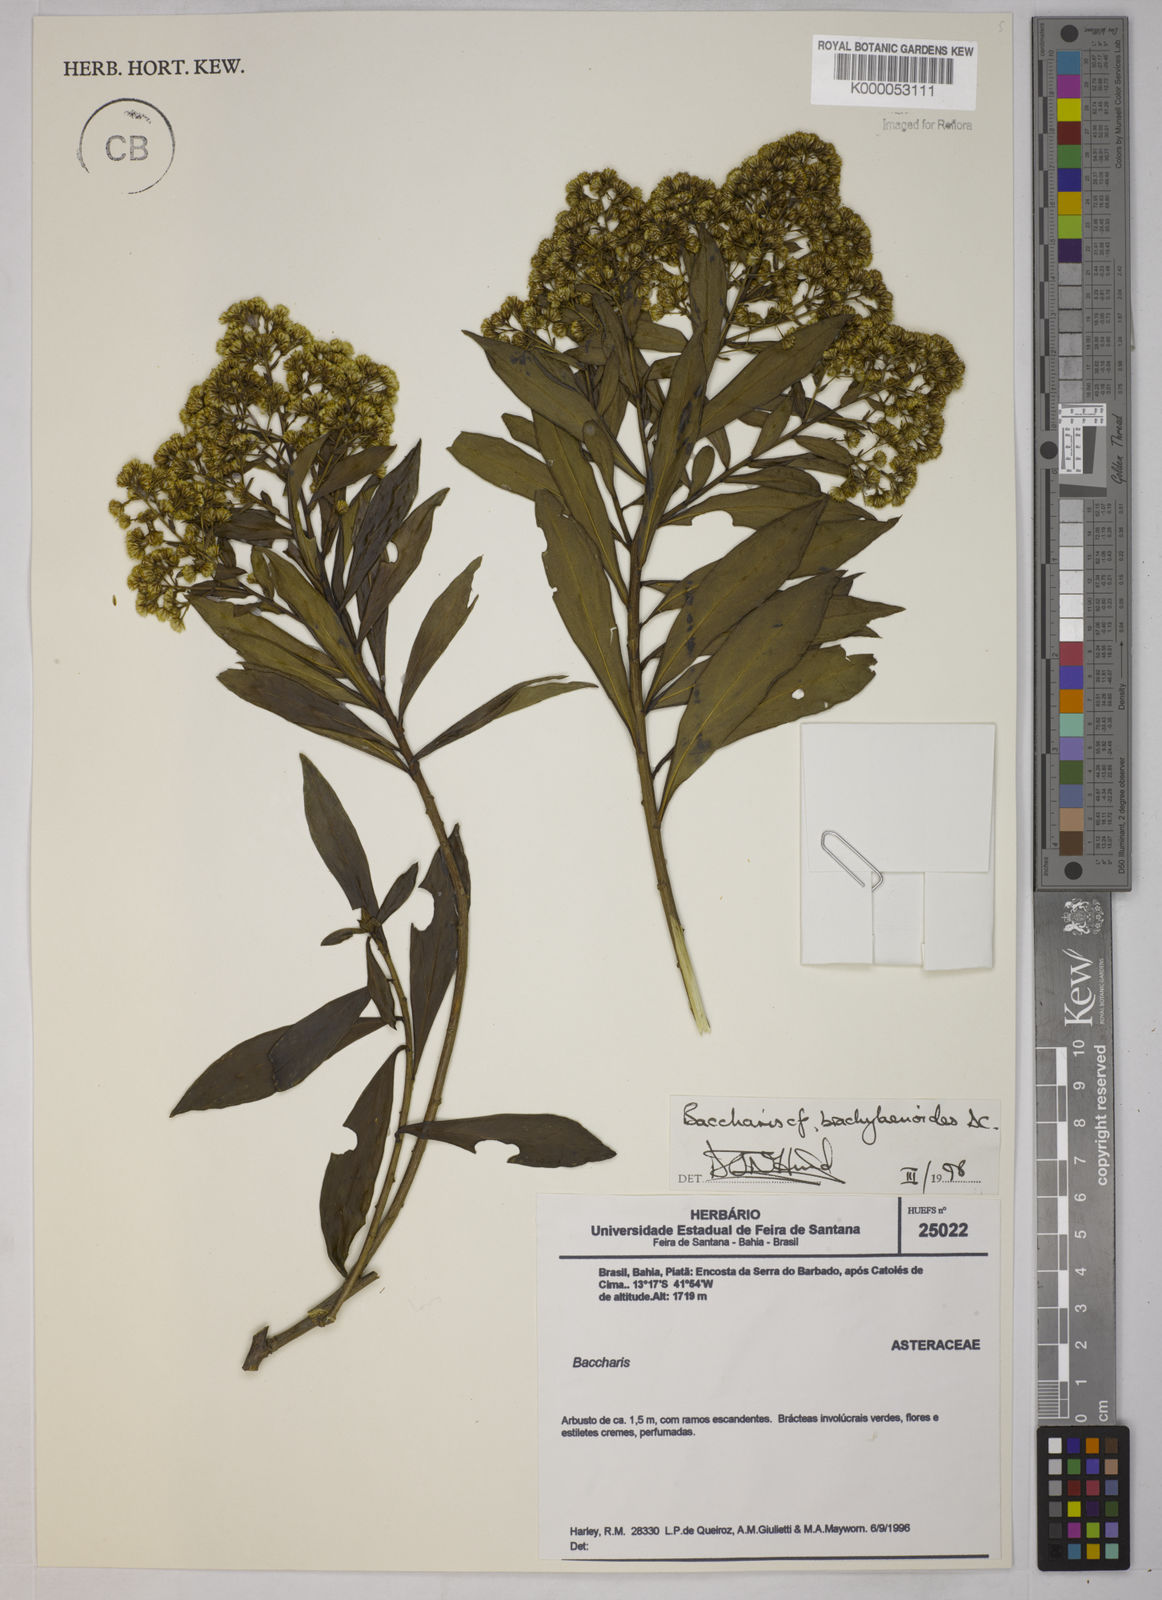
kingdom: Plantae
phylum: Tracheophyta
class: Magnoliopsida
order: Asterales
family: Asteraceae
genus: Baccharis
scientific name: Baccharis oblongifolia
